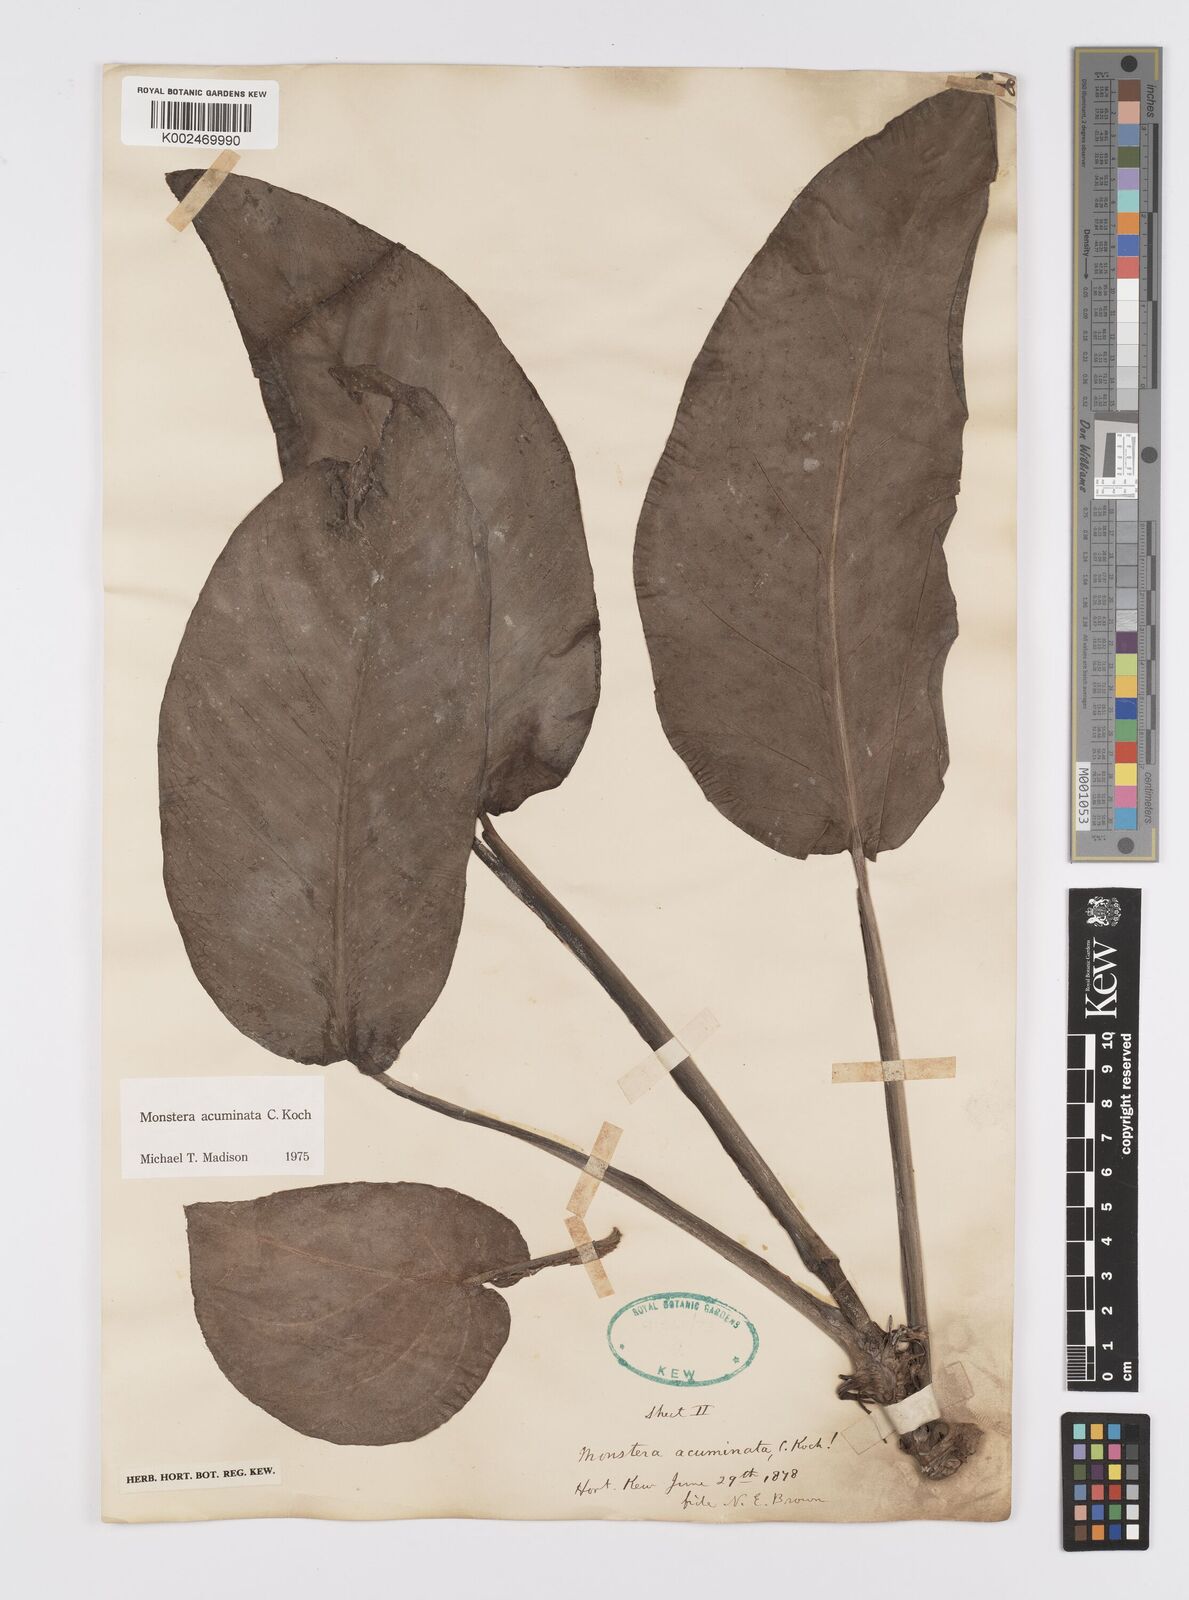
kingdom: Plantae
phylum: Tracheophyta
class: Liliopsida
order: Alismatales
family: Araceae
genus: Monstera
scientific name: Monstera acuminata
